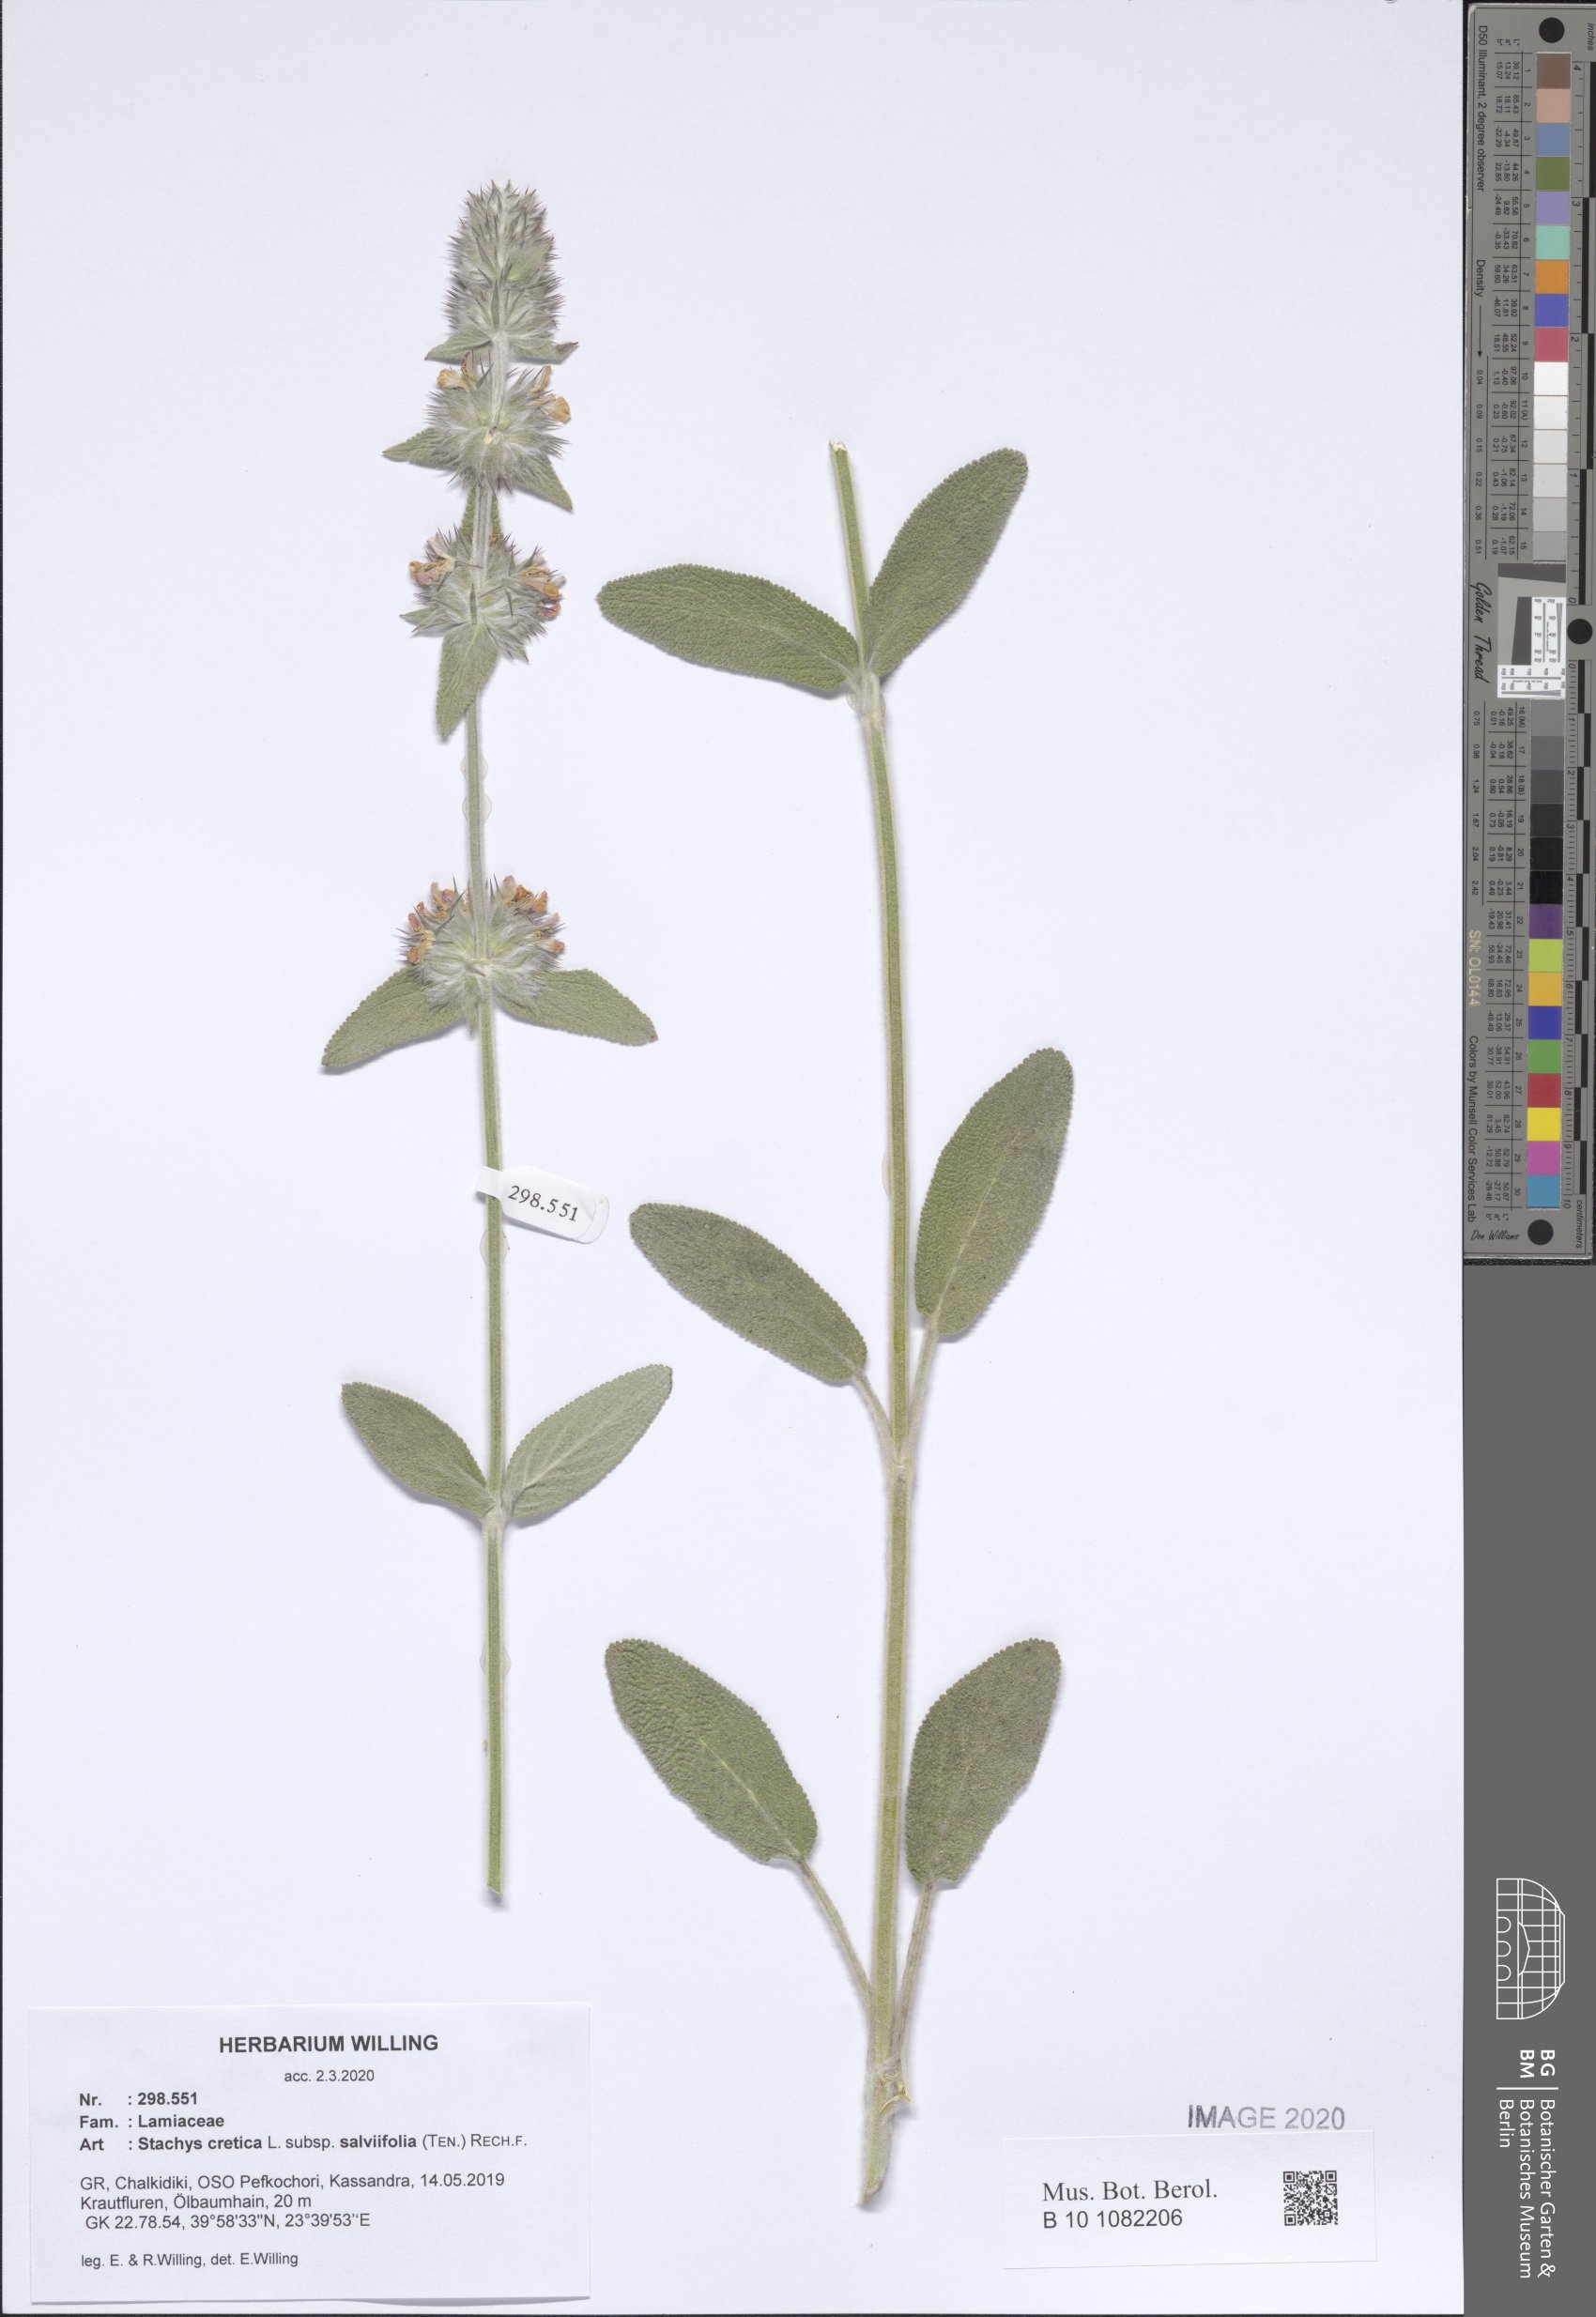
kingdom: Plantae
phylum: Tracheophyta
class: Magnoliopsida
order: Lamiales
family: Lamiaceae
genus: Stachys
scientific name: Stachys cretica
